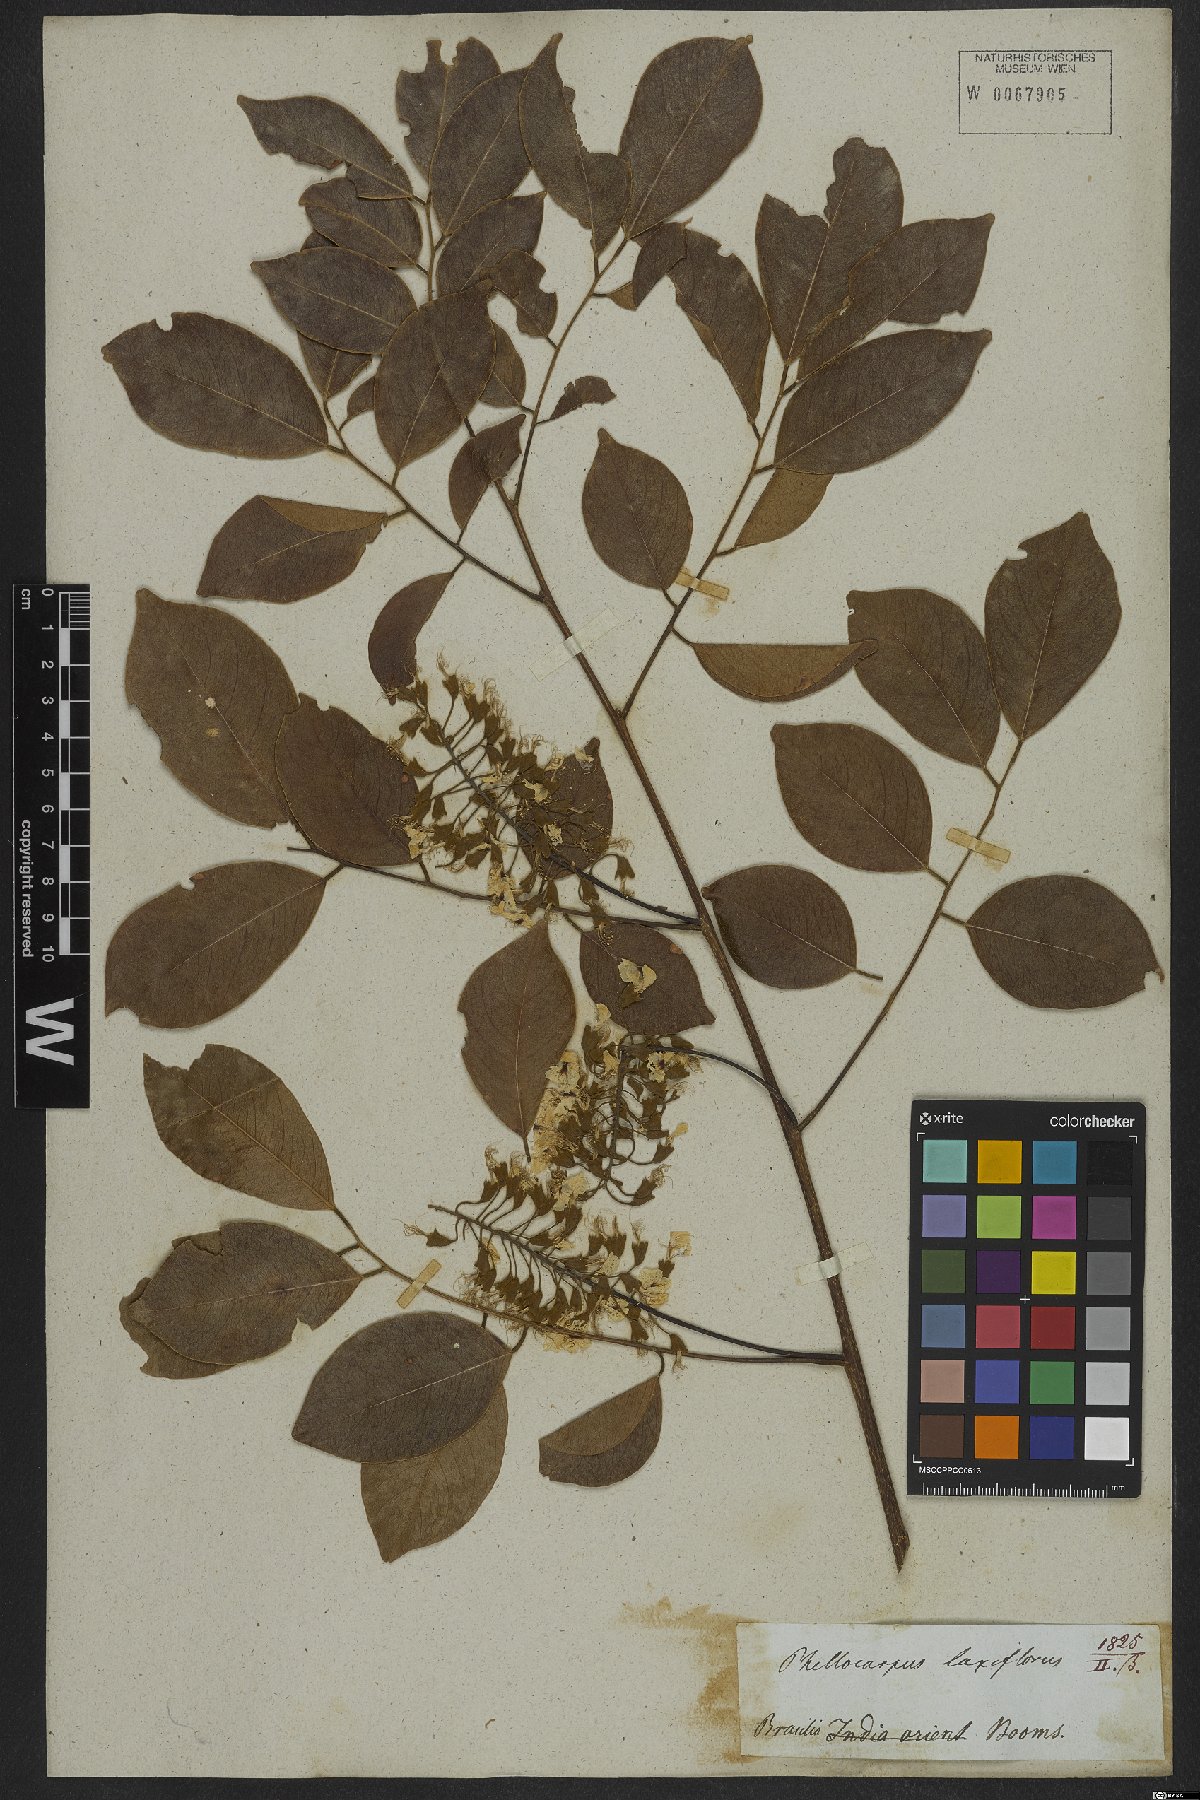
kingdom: Plantae
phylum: Tracheophyta
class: Magnoliopsida
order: Fabales
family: Fabaceae
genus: Pterocarpus
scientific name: Pterocarpus rohrii
